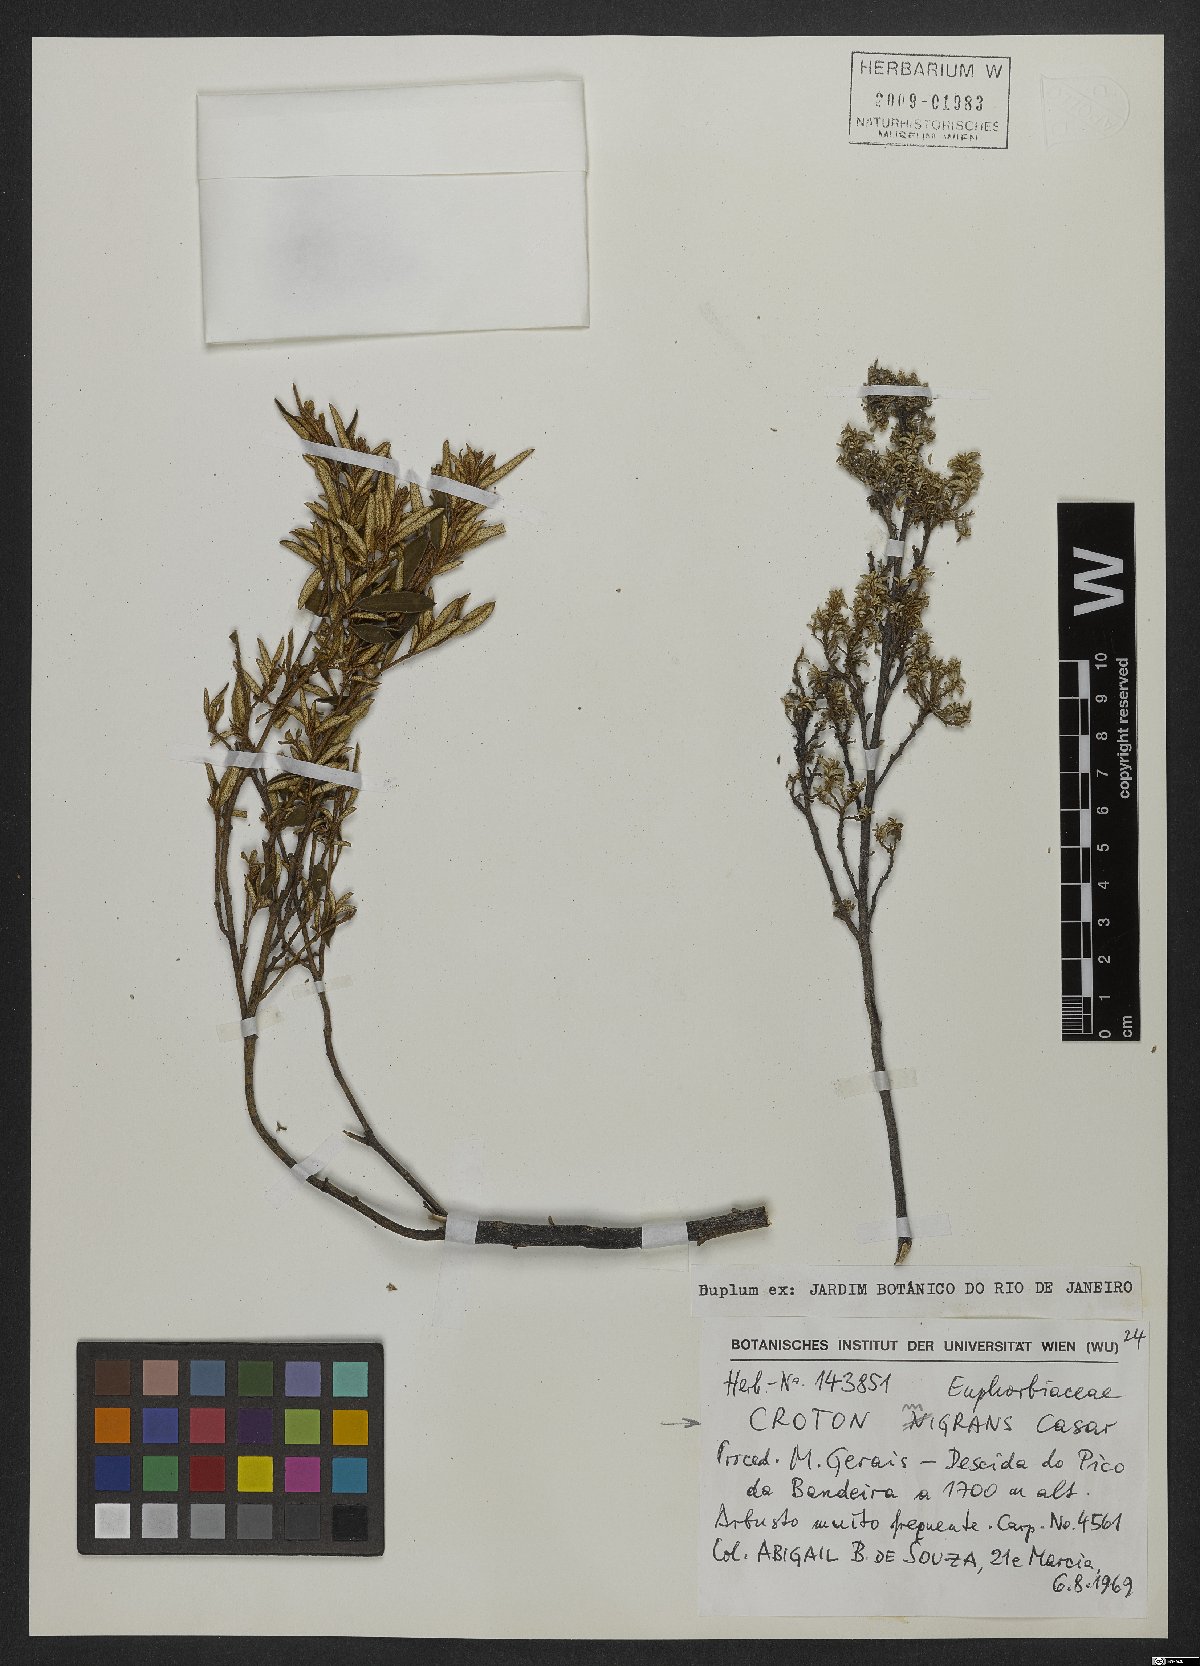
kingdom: Plantae
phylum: Tracheophyta
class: Magnoliopsida
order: Malpighiales
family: Euphorbiaceae
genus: Croton
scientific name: Croton splendidus
